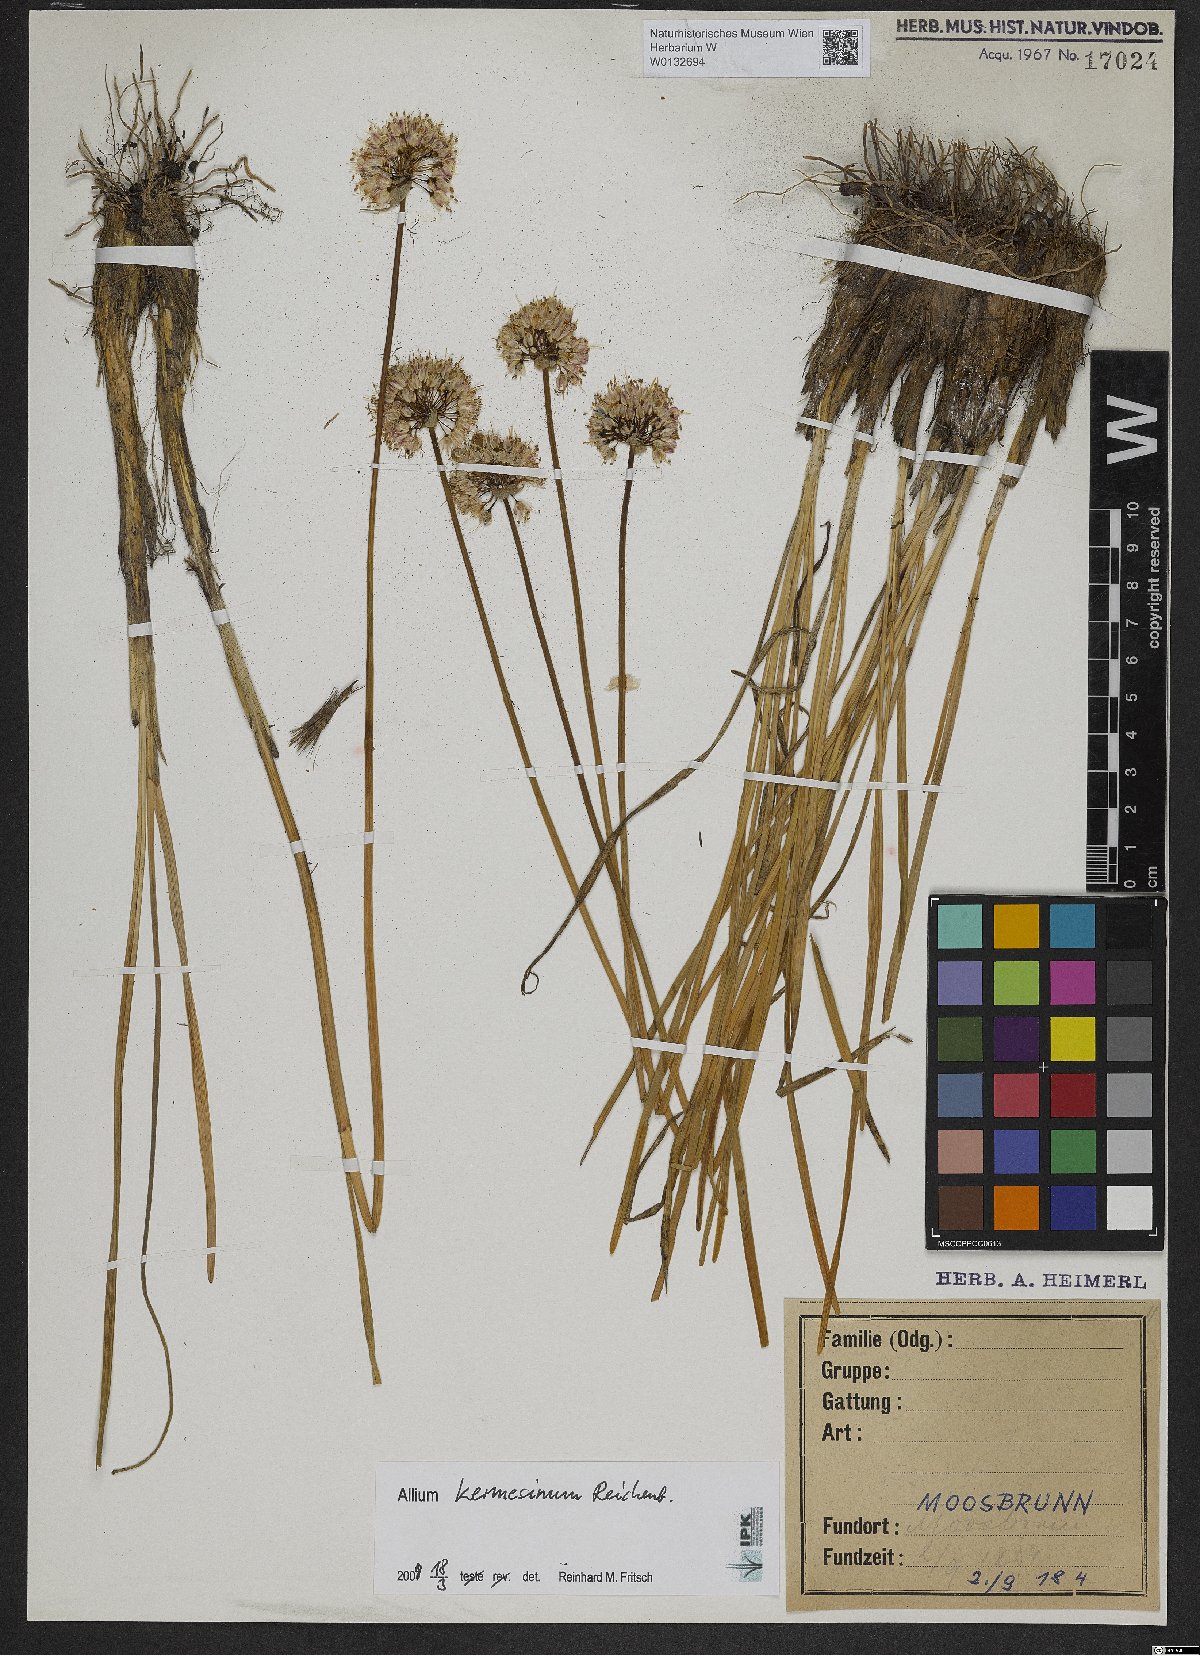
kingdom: Plantae
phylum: Tracheophyta
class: Liliopsida
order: Asparagales
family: Amaryllidaceae
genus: Allium
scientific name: Allium kermesinum
